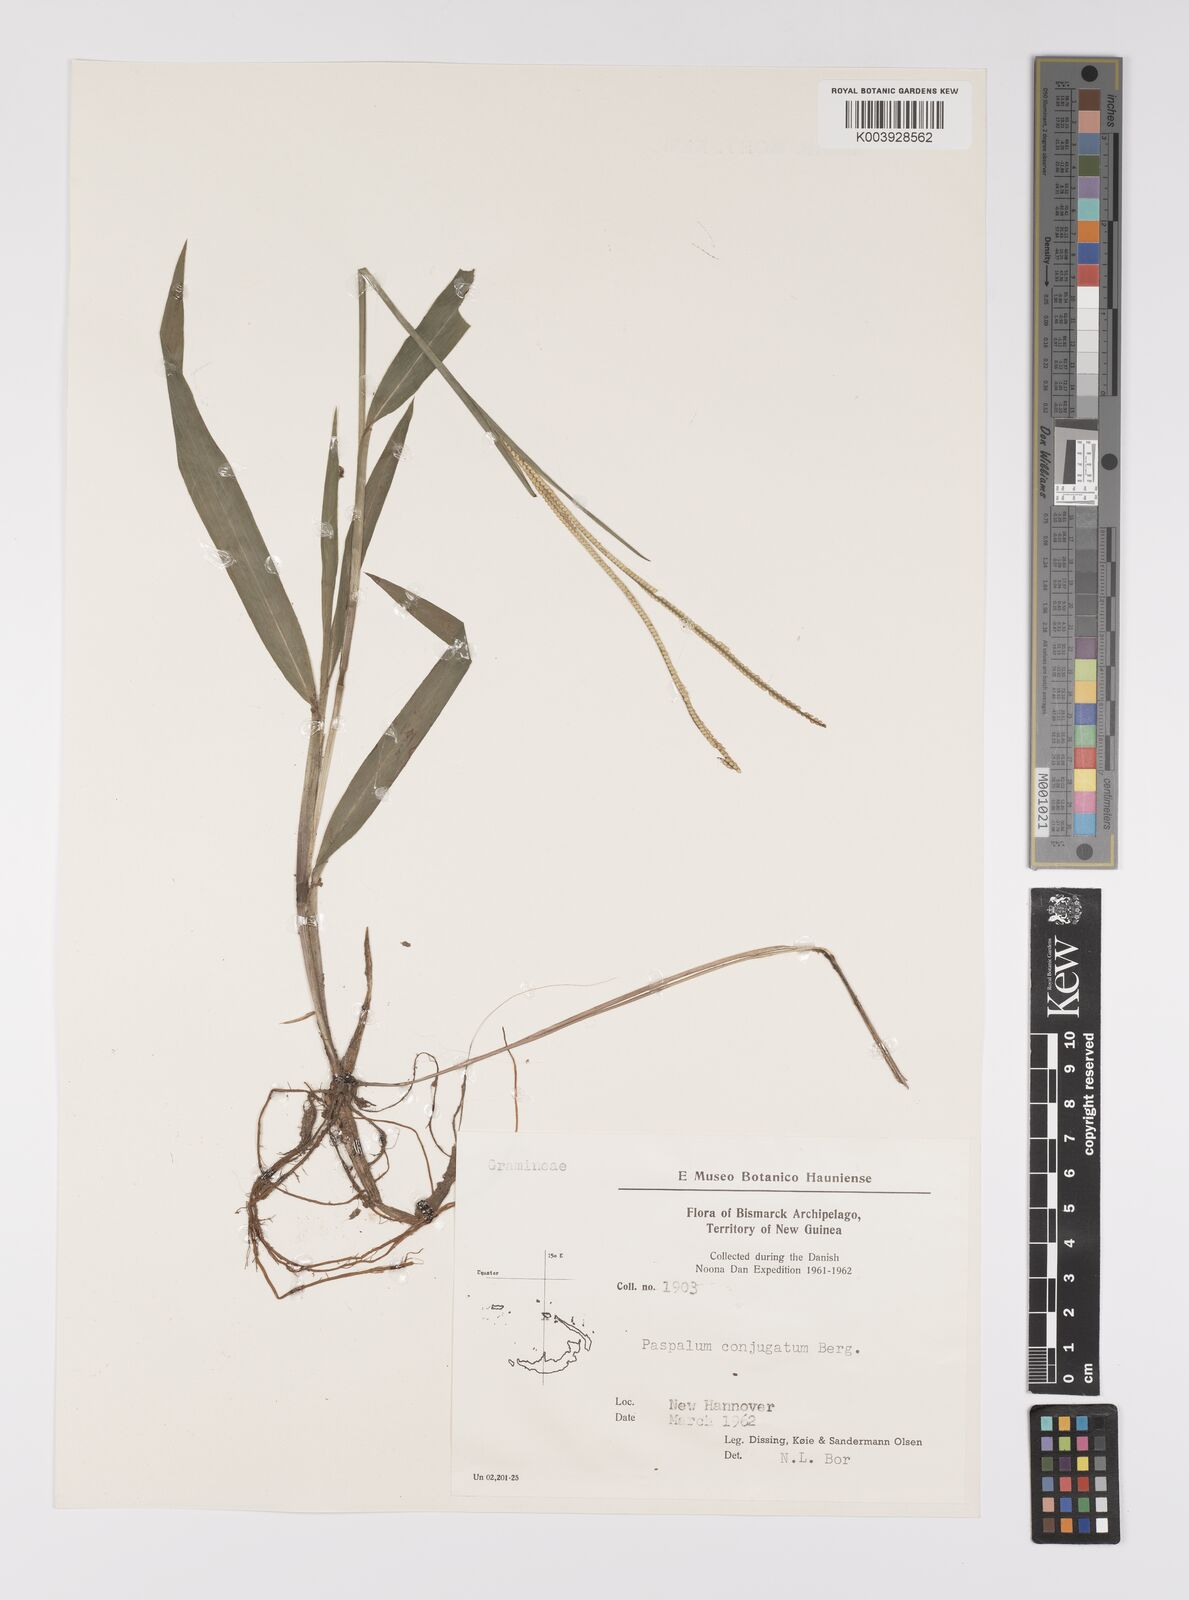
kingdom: Plantae
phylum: Tracheophyta
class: Liliopsida
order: Poales
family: Poaceae
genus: Paspalum
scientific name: Paspalum conjugatum
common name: Hilograss
